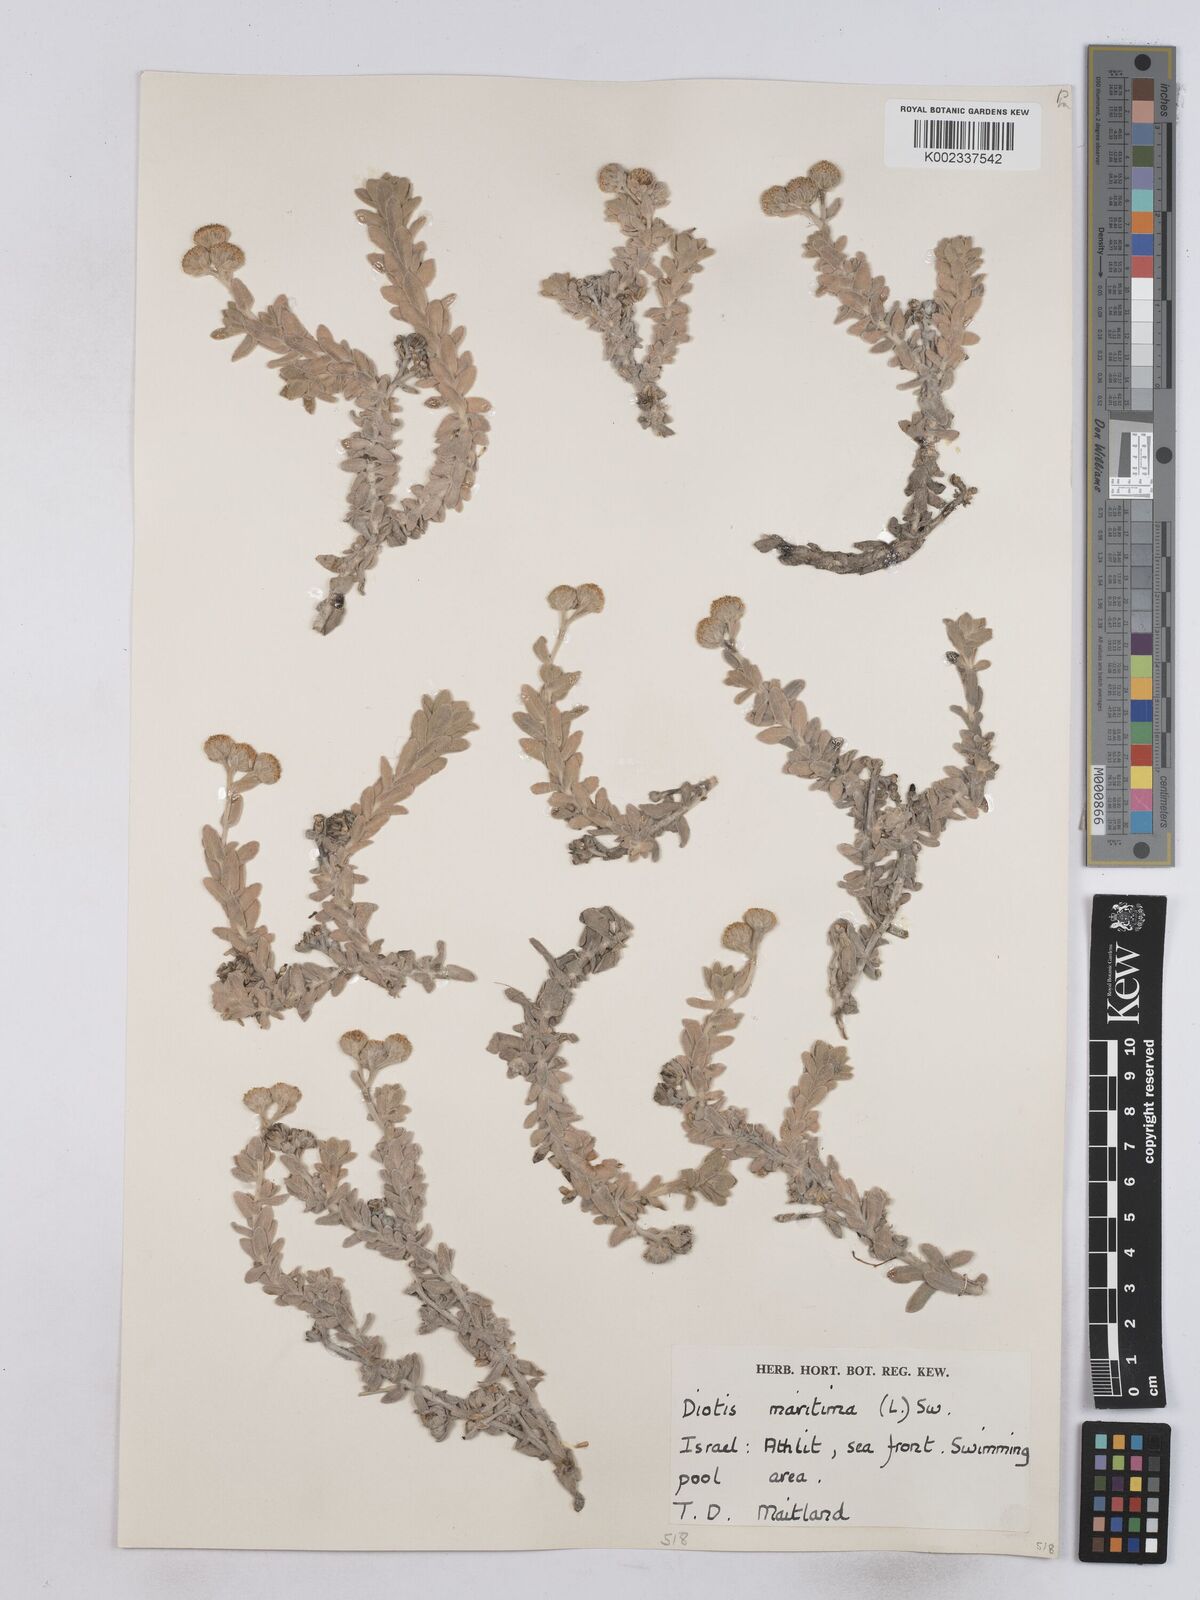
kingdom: Plantae
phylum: Tracheophyta
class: Magnoliopsida
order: Asterales
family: Asteraceae
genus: Achillea
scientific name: Achillea maritima
